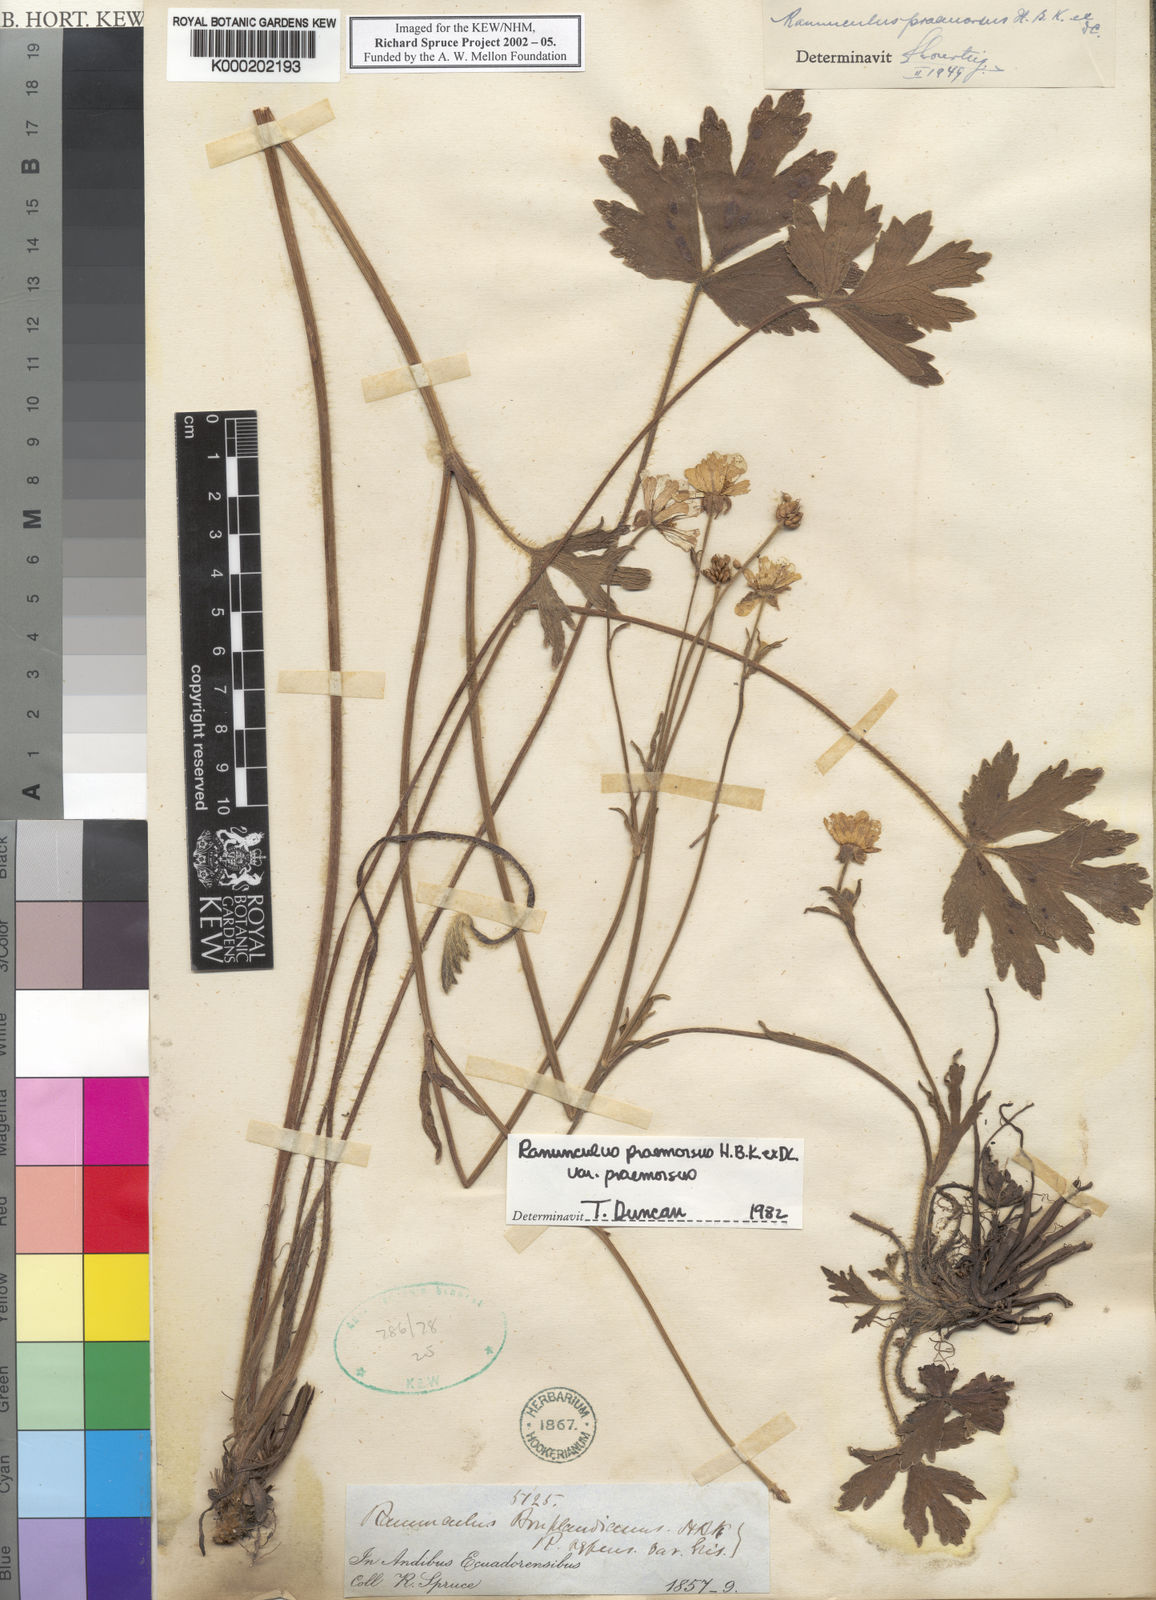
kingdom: Plantae
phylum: Tracheophyta
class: Magnoliopsida
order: Ranunculales
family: Ranunculaceae
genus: Ranunculus
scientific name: Ranunculus praemorsus
